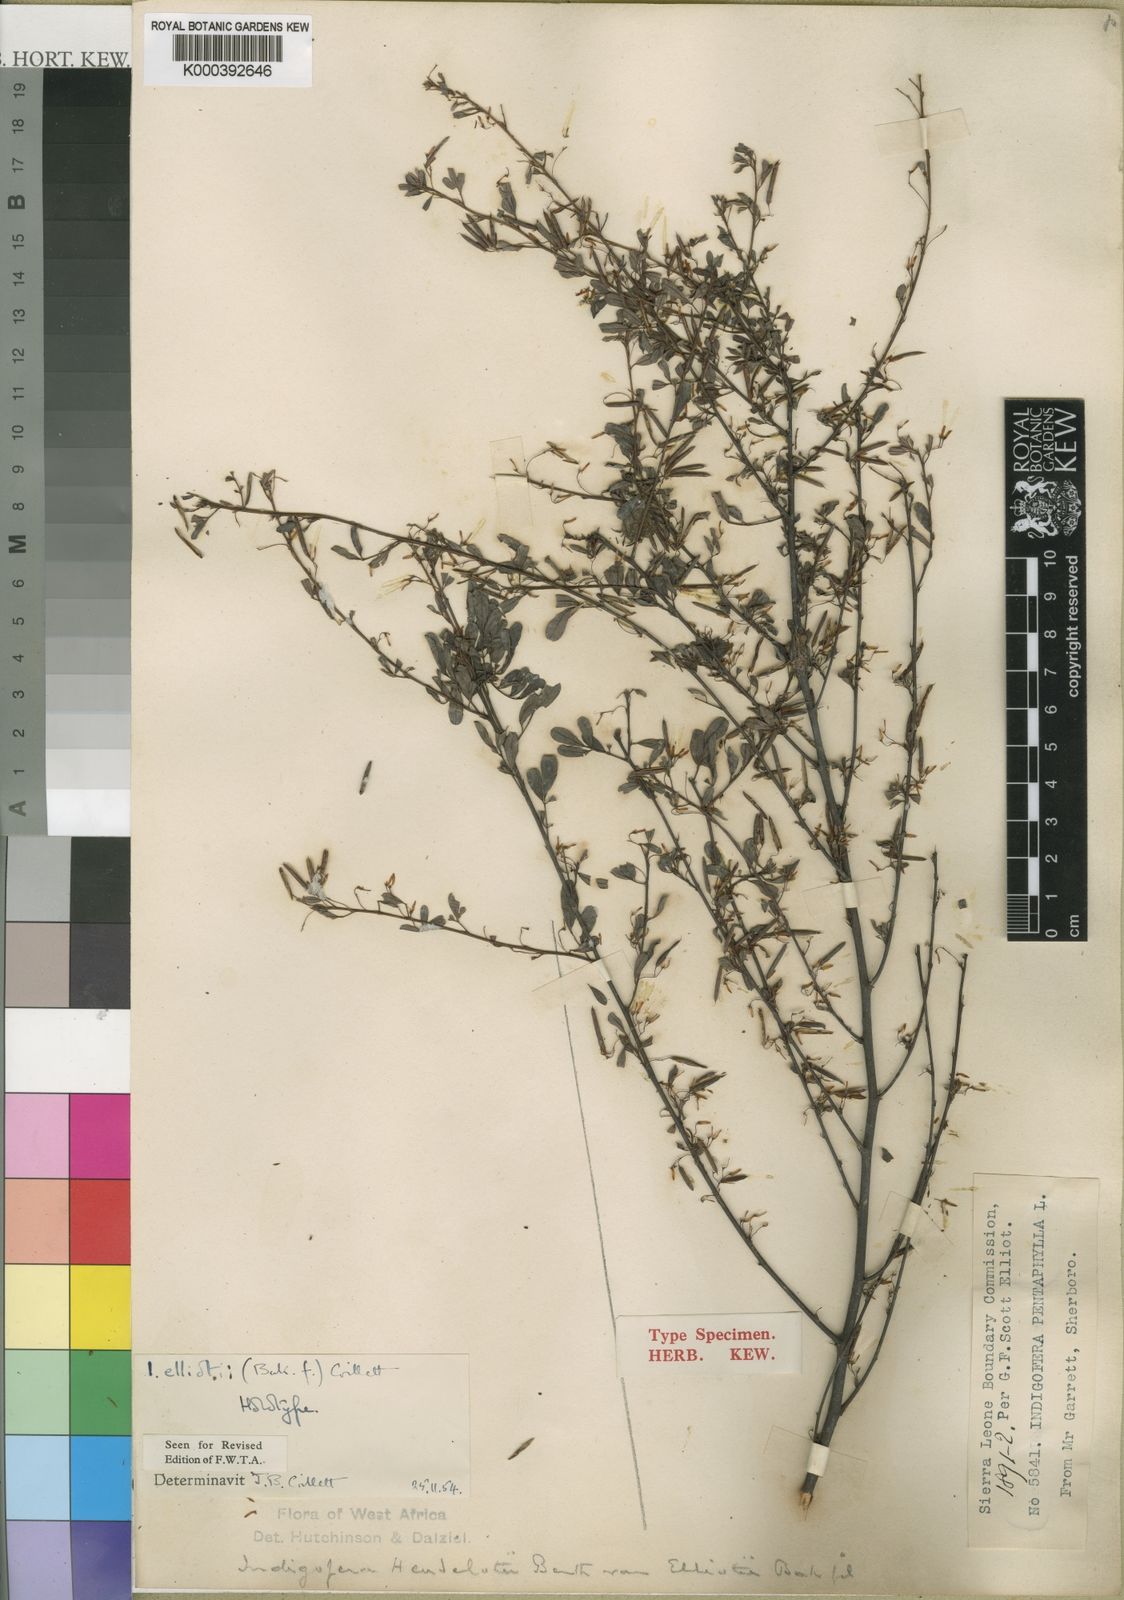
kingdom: Plantae
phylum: Tracheophyta
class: Magnoliopsida
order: Fabales
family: Fabaceae
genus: Indigofera
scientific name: Indigofera elliotii
